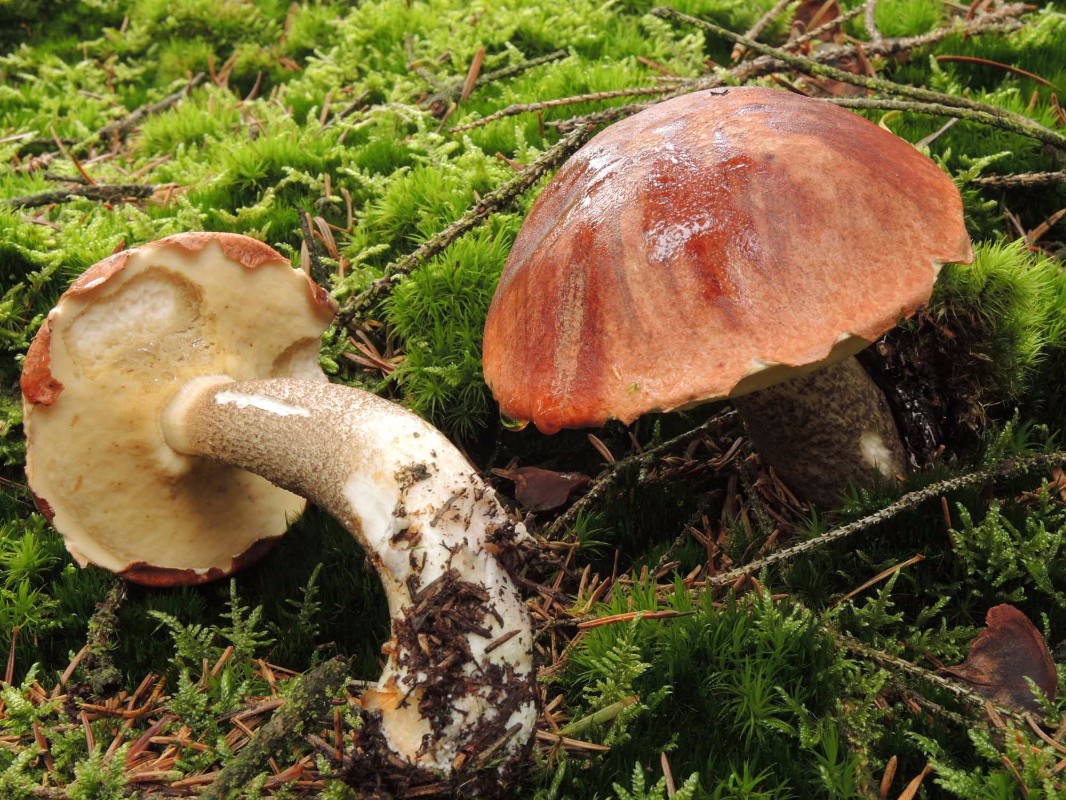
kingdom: Fungi
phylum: Basidiomycota
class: Agaricomycetes
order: Boletales
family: Boletaceae
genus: Leccinum
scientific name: Leccinum
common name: skælrørhat
